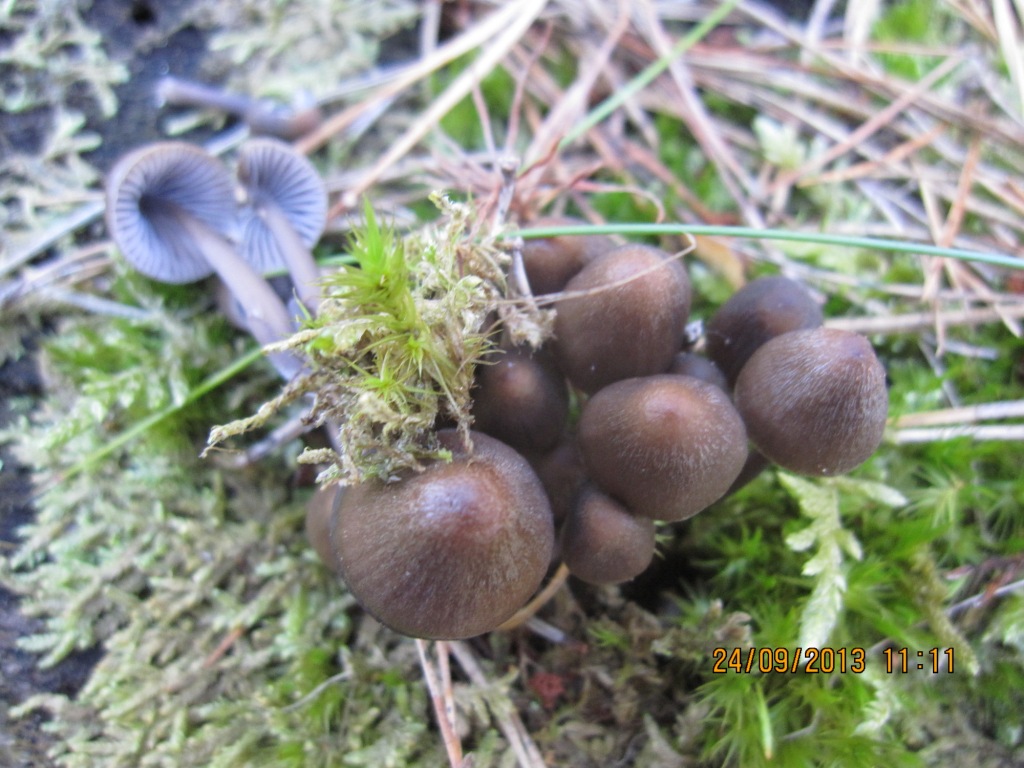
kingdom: Fungi
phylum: Basidiomycota
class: Agaricomycetes
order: Agaricales
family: Mycenaceae
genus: Mycena
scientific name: Mycena stipata
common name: stinkende huesvamp
